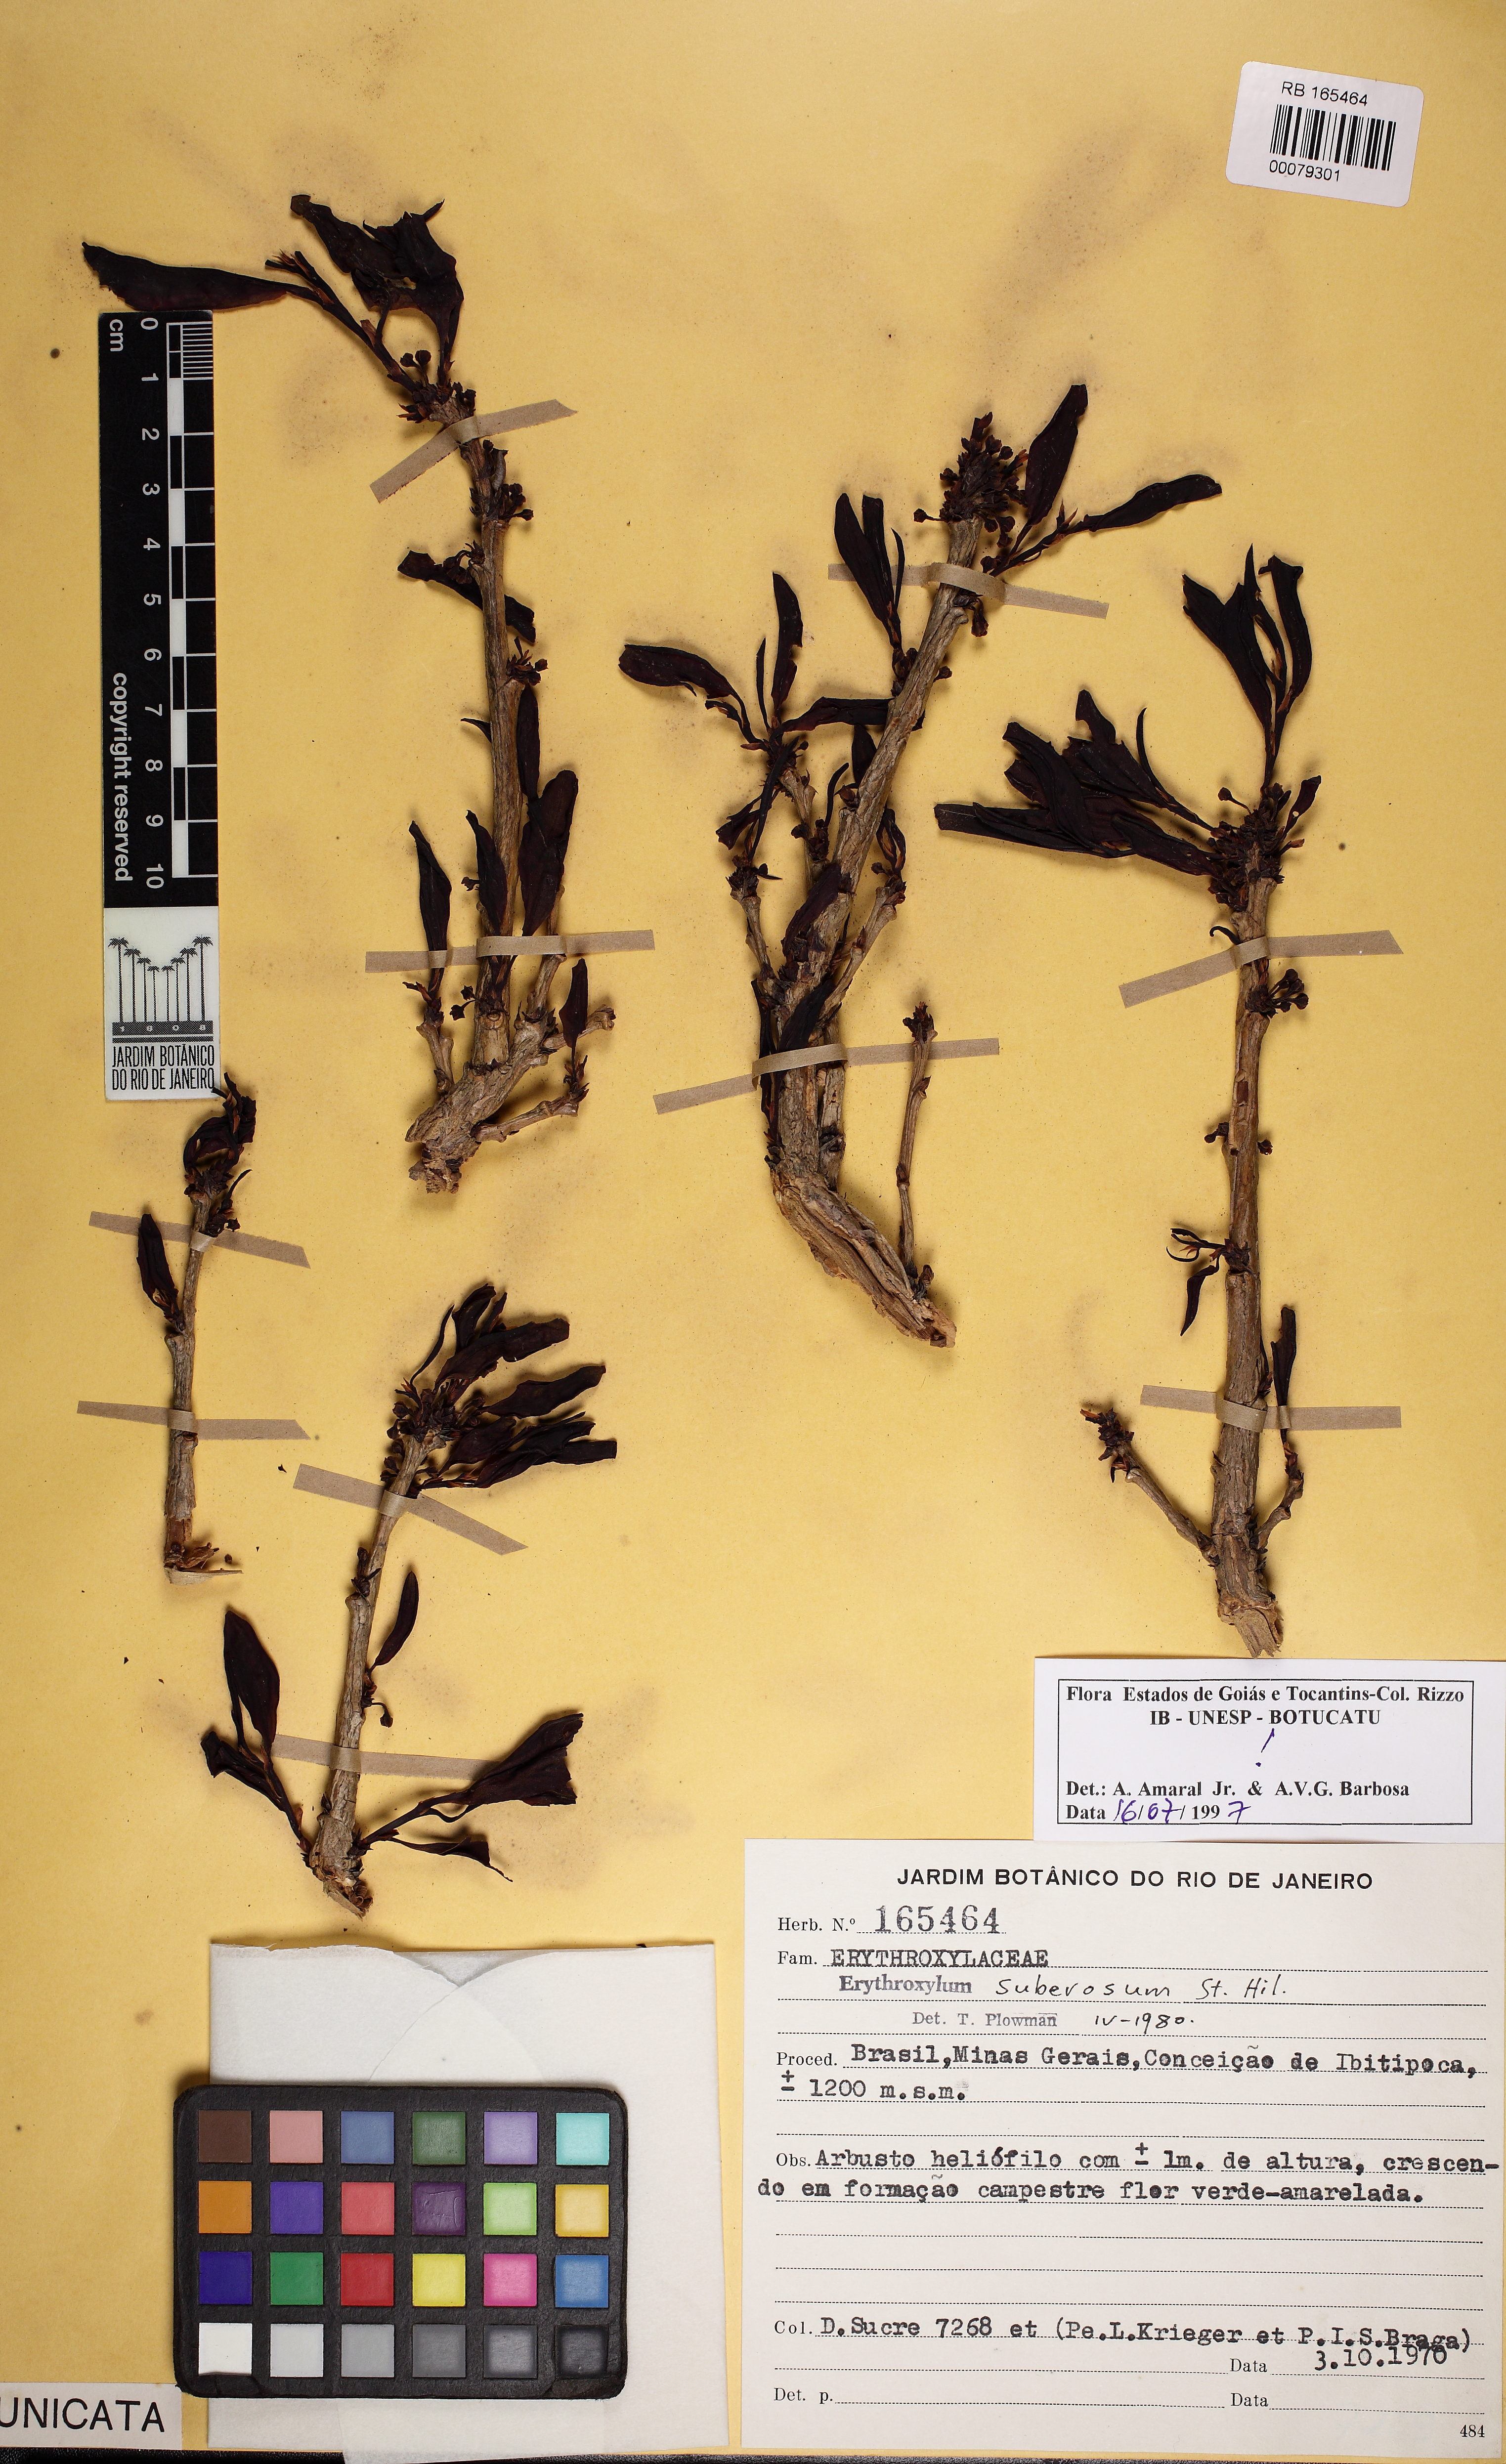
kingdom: Plantae
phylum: Tracheophyta
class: Magnoliopsida
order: Malpighiales
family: Erythroxylaceae
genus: Erythroxylum
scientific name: Erythroxylum suberosum
